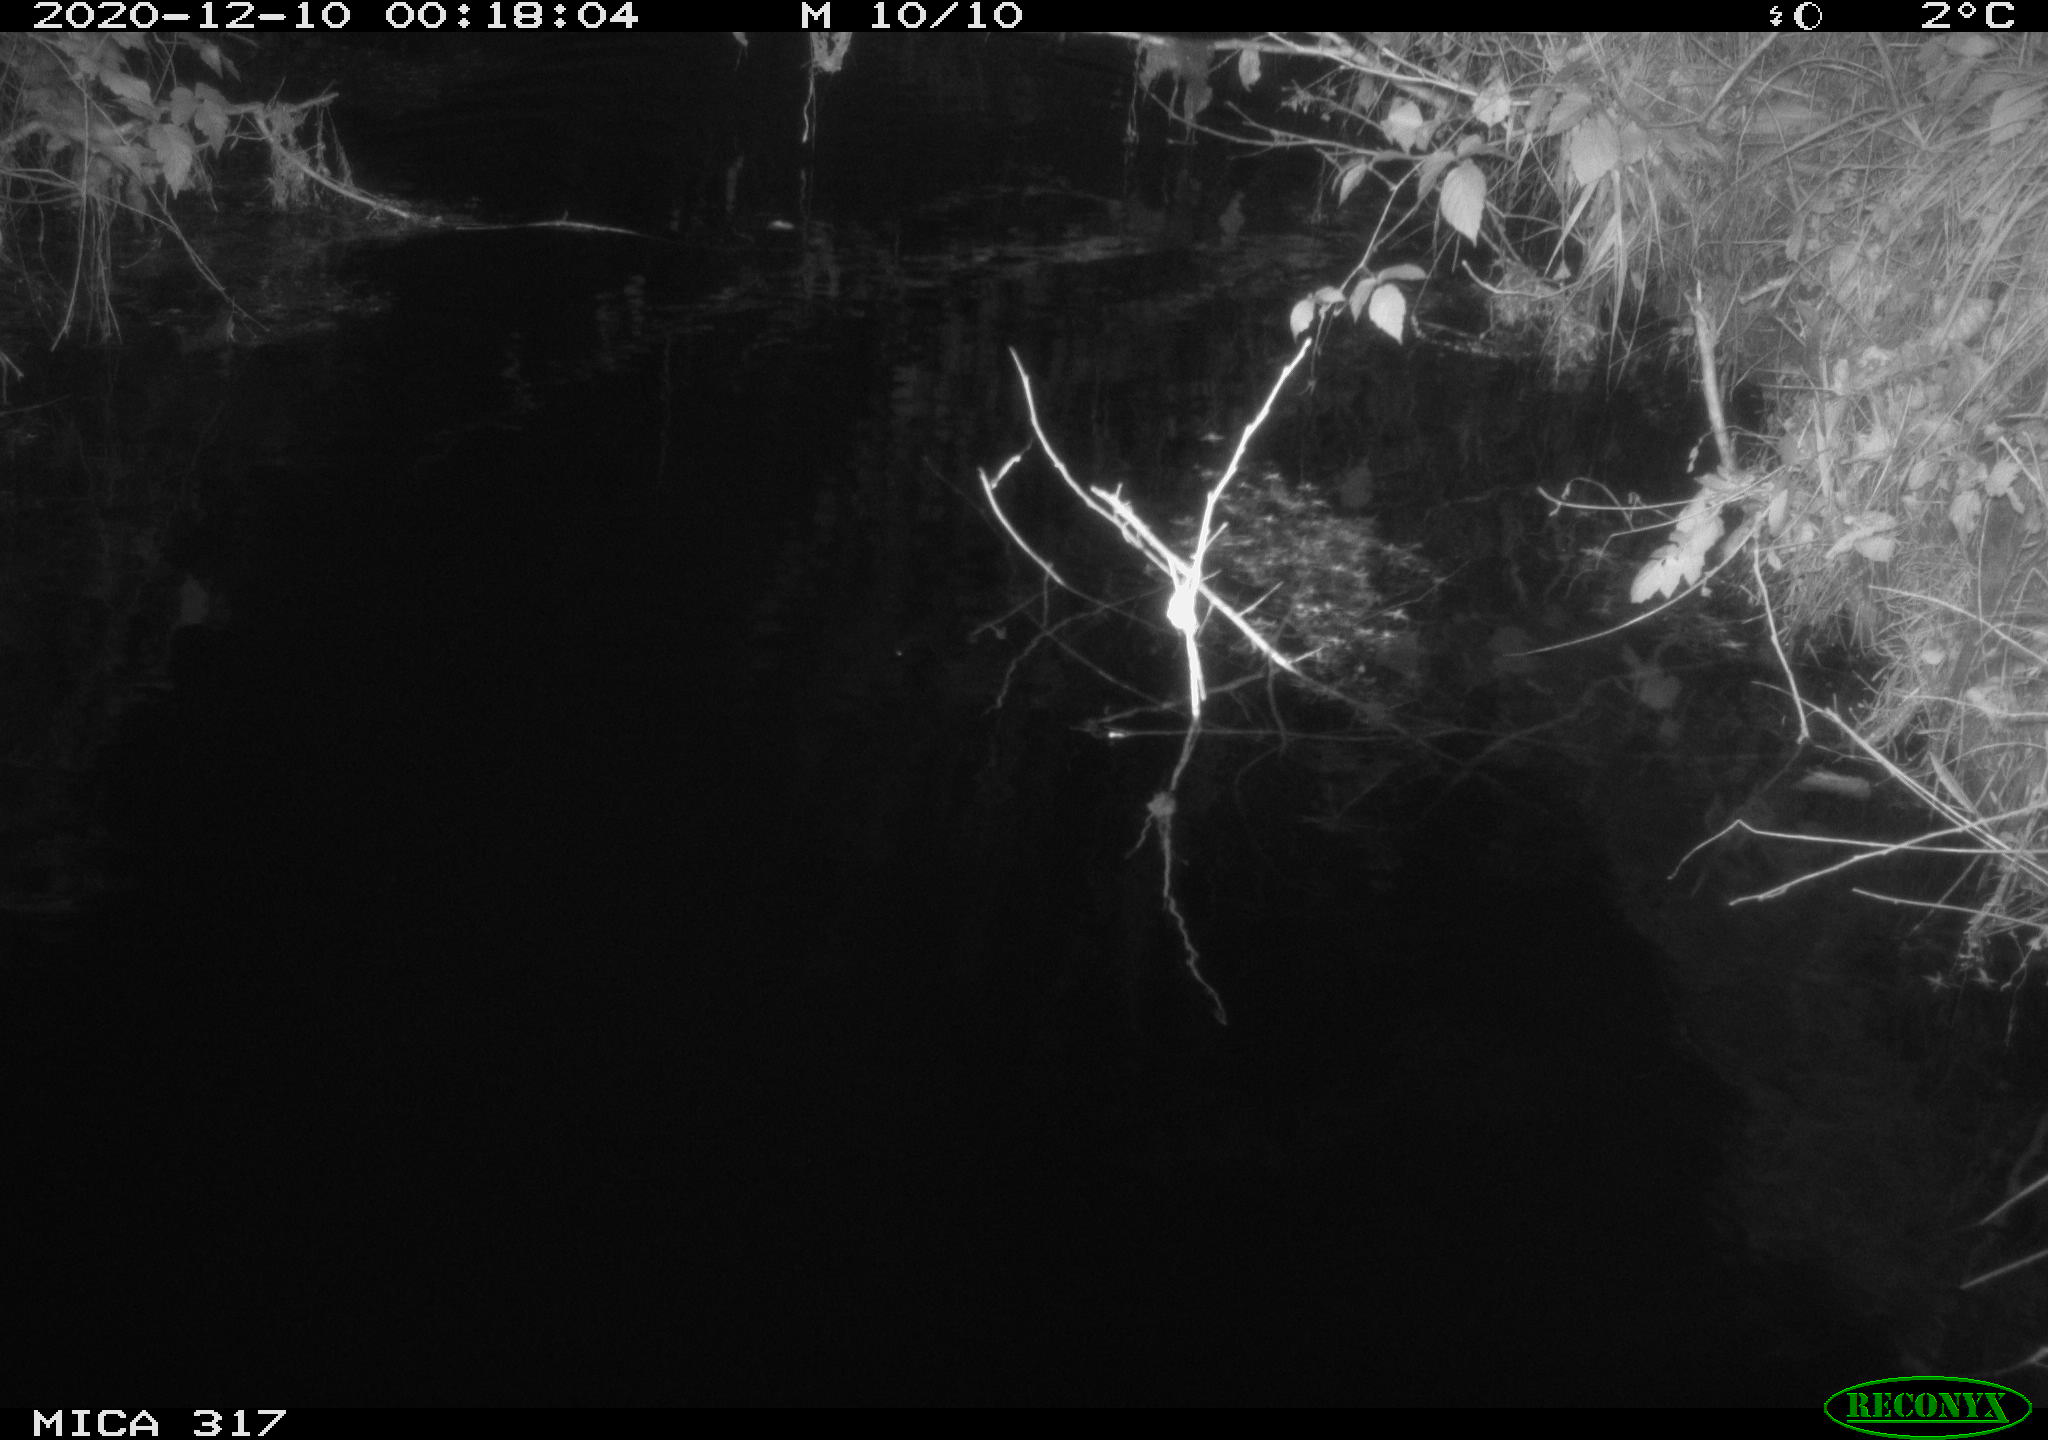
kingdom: Animalia
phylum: Chordata
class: Mammalia
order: Rodentia
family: Muridae
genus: Rattus
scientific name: Rattus norvegicus
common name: Brown rat
